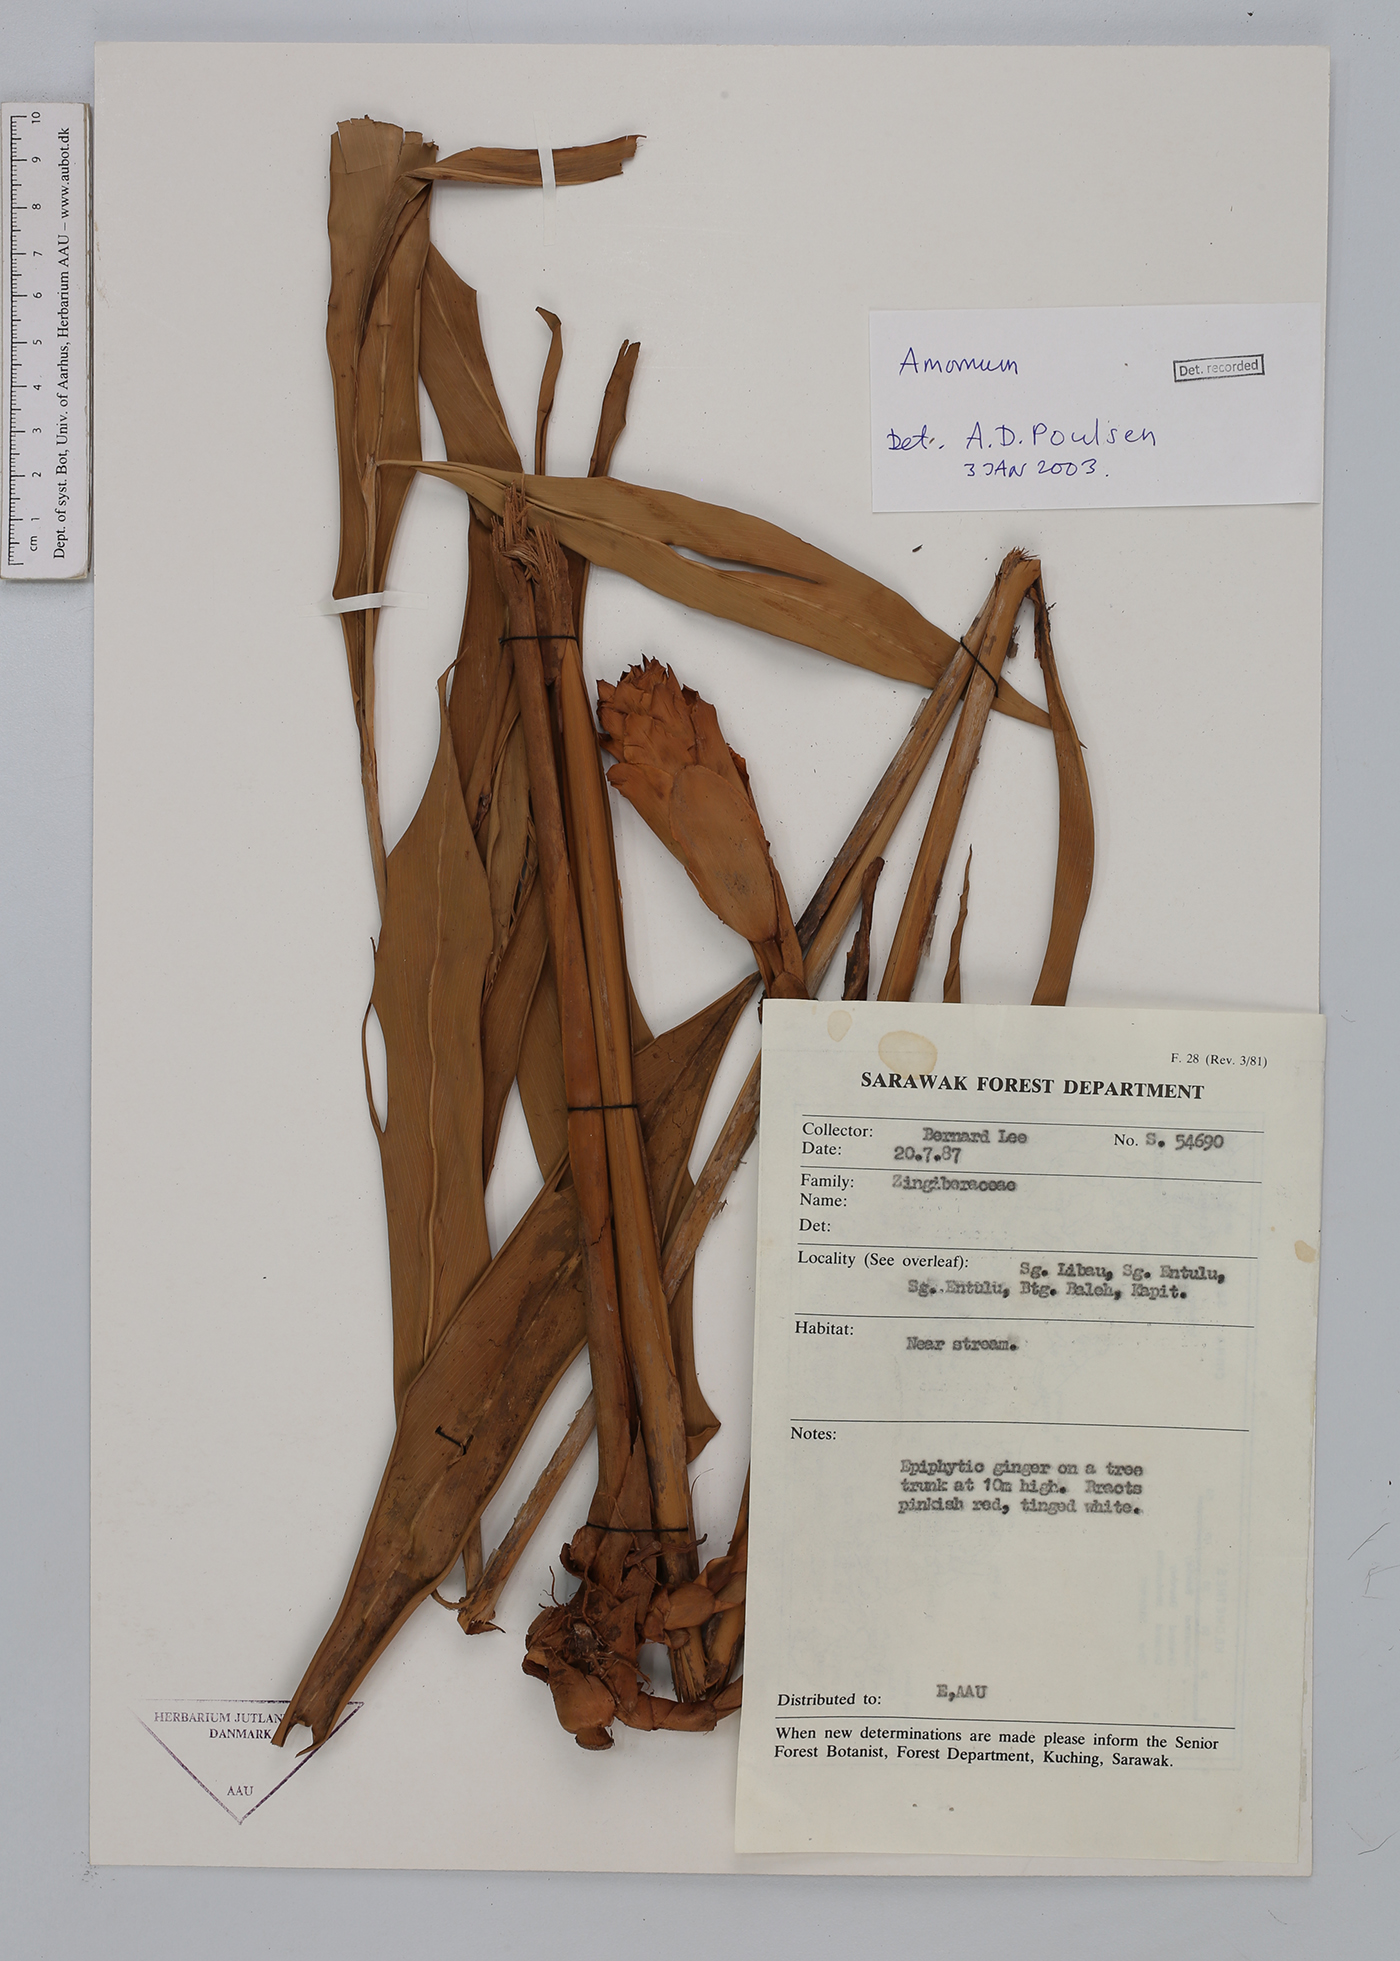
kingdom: Plantae
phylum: Tracheophyta
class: Liliopsida
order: Zingiberales
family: Zingiberaceae
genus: Amomum
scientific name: Amomum
